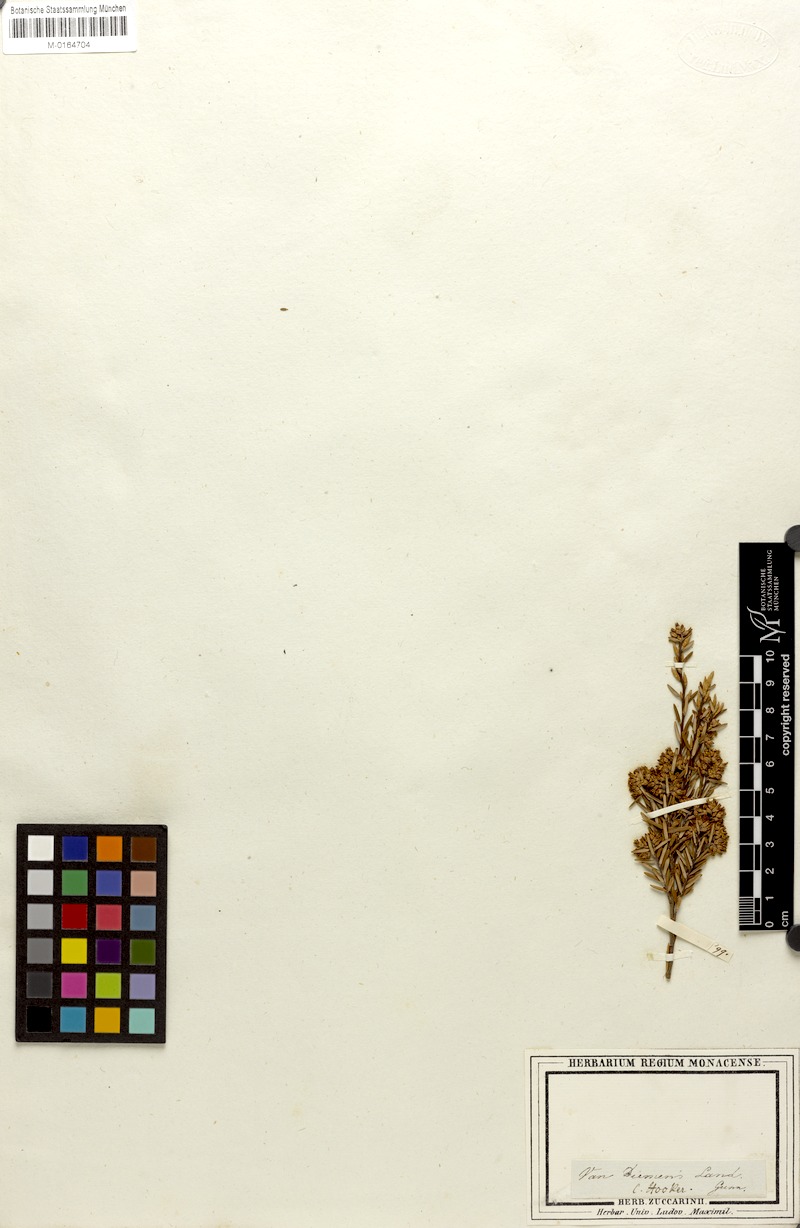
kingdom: Plantae
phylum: Tracheophyta
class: Magnoliopsida
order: Ericales
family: Ericaceae
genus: Acrothamnus
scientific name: Acrothamnus hookeri
